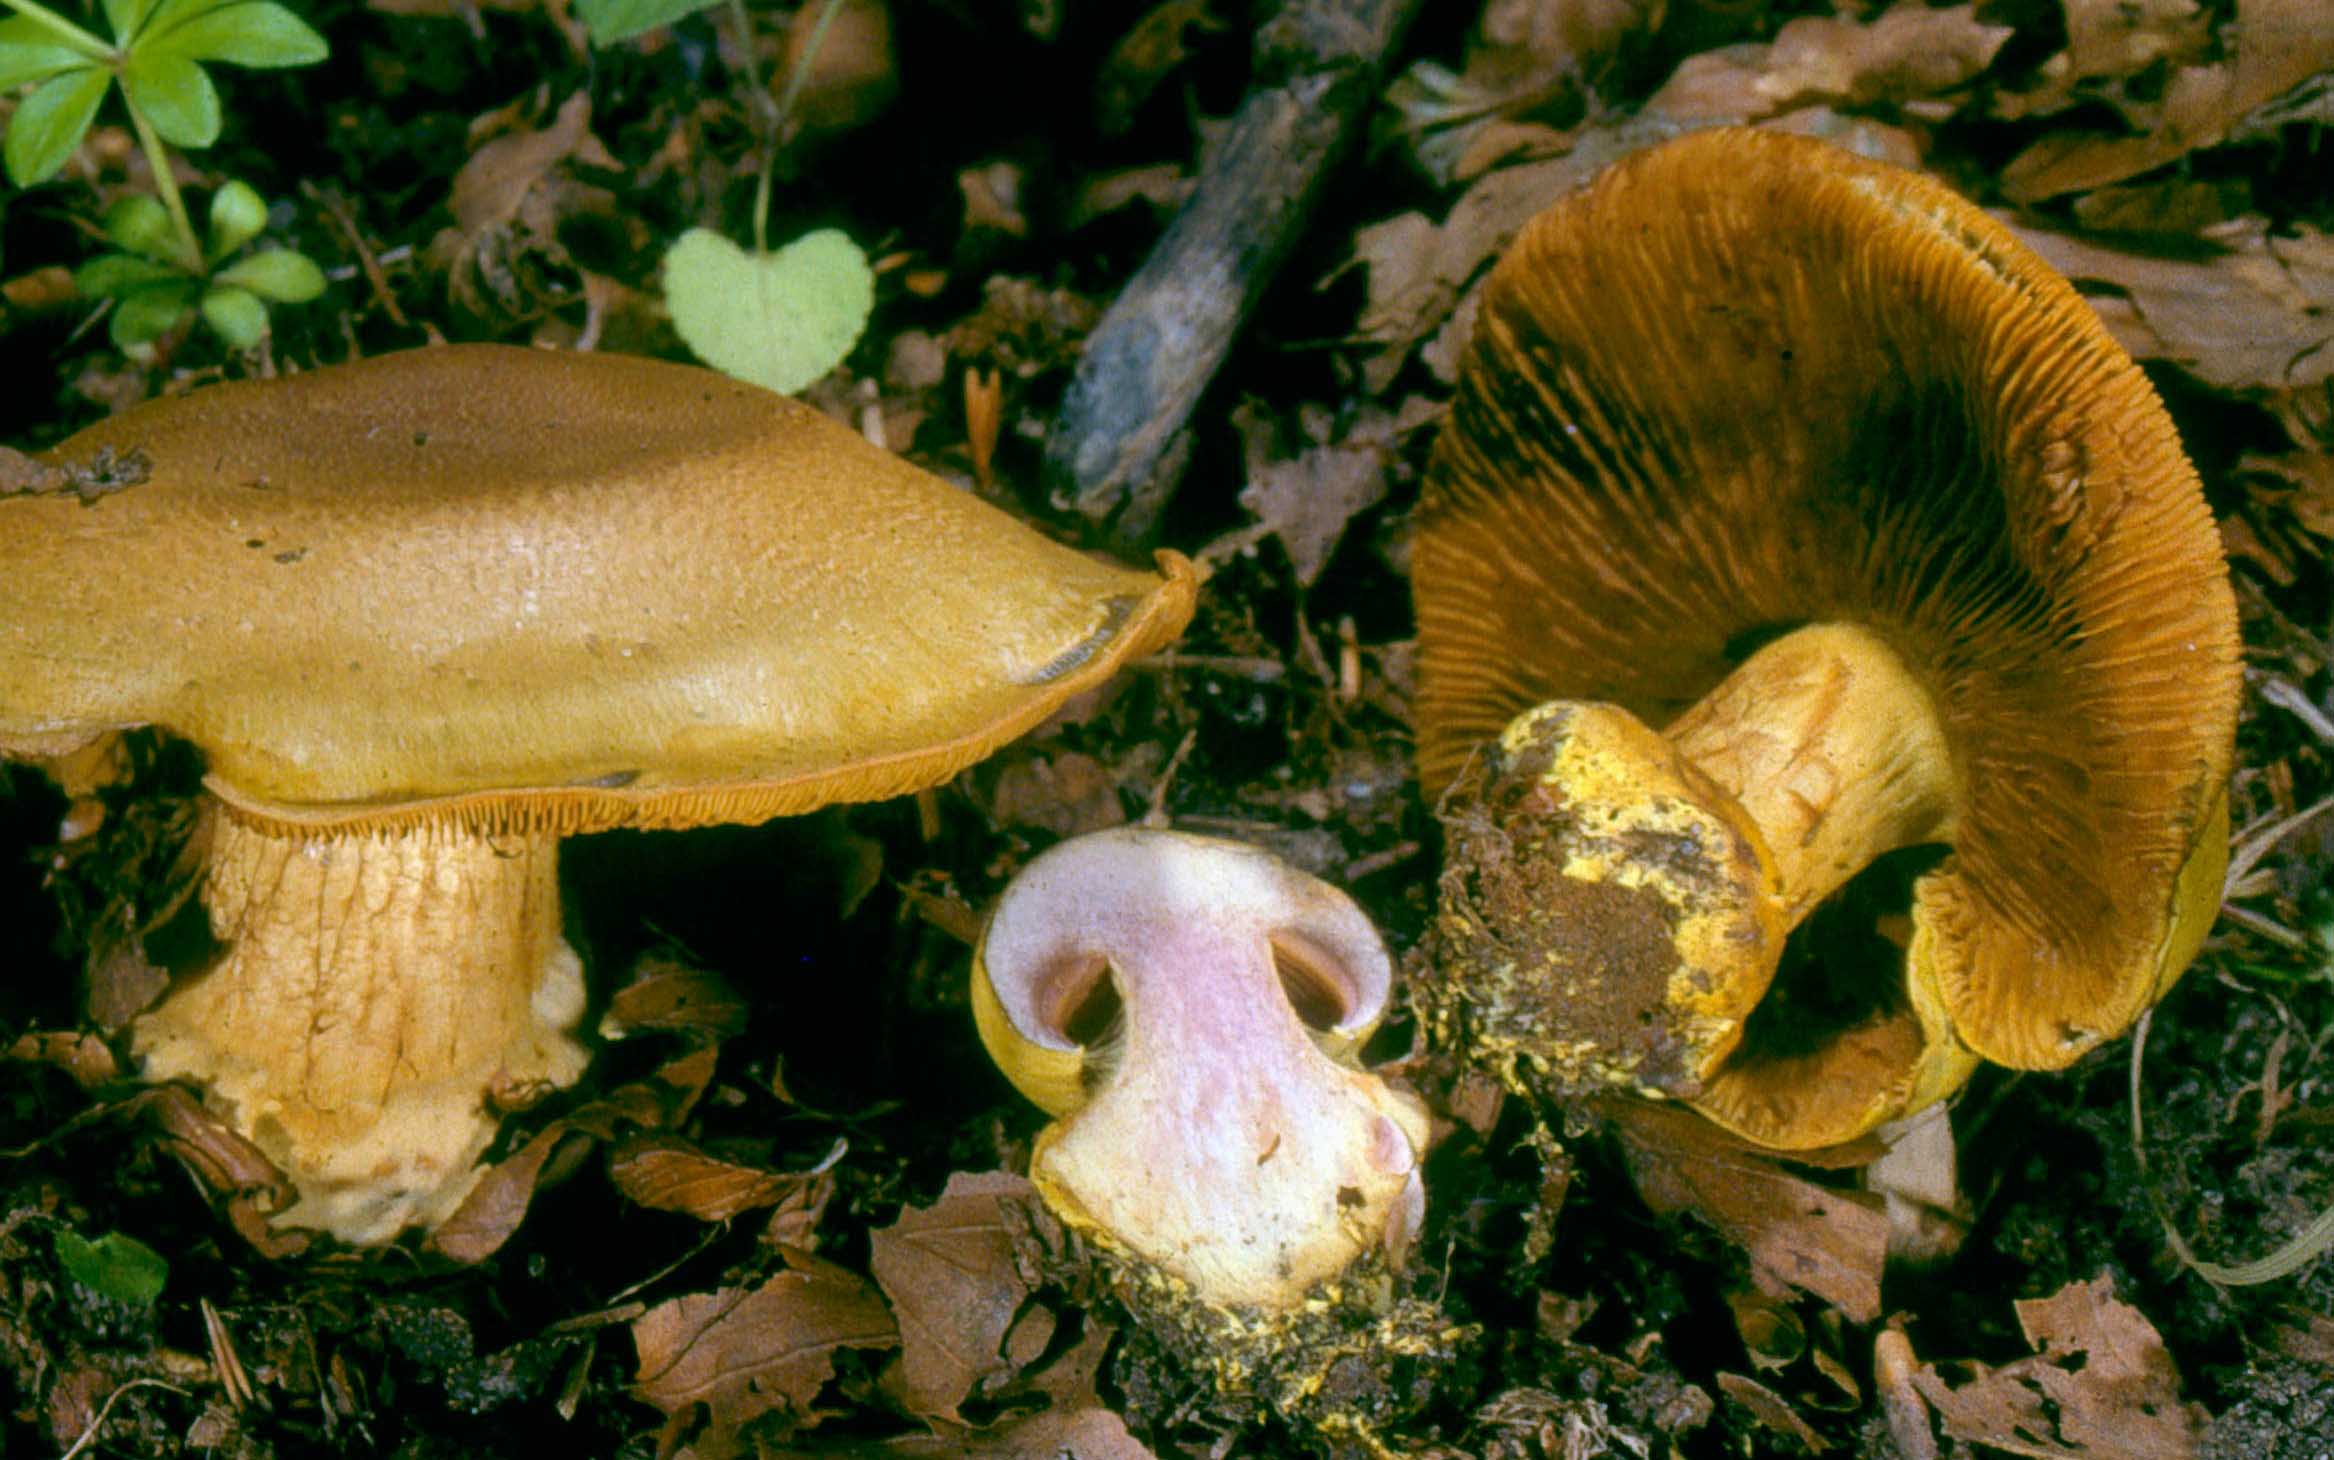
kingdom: Fungi
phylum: Basidiomycota
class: Agaricomycetes
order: Agaricales
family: Cortinariaceae
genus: Calonarius
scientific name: Calonarius odoratus
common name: krydret slørhat
